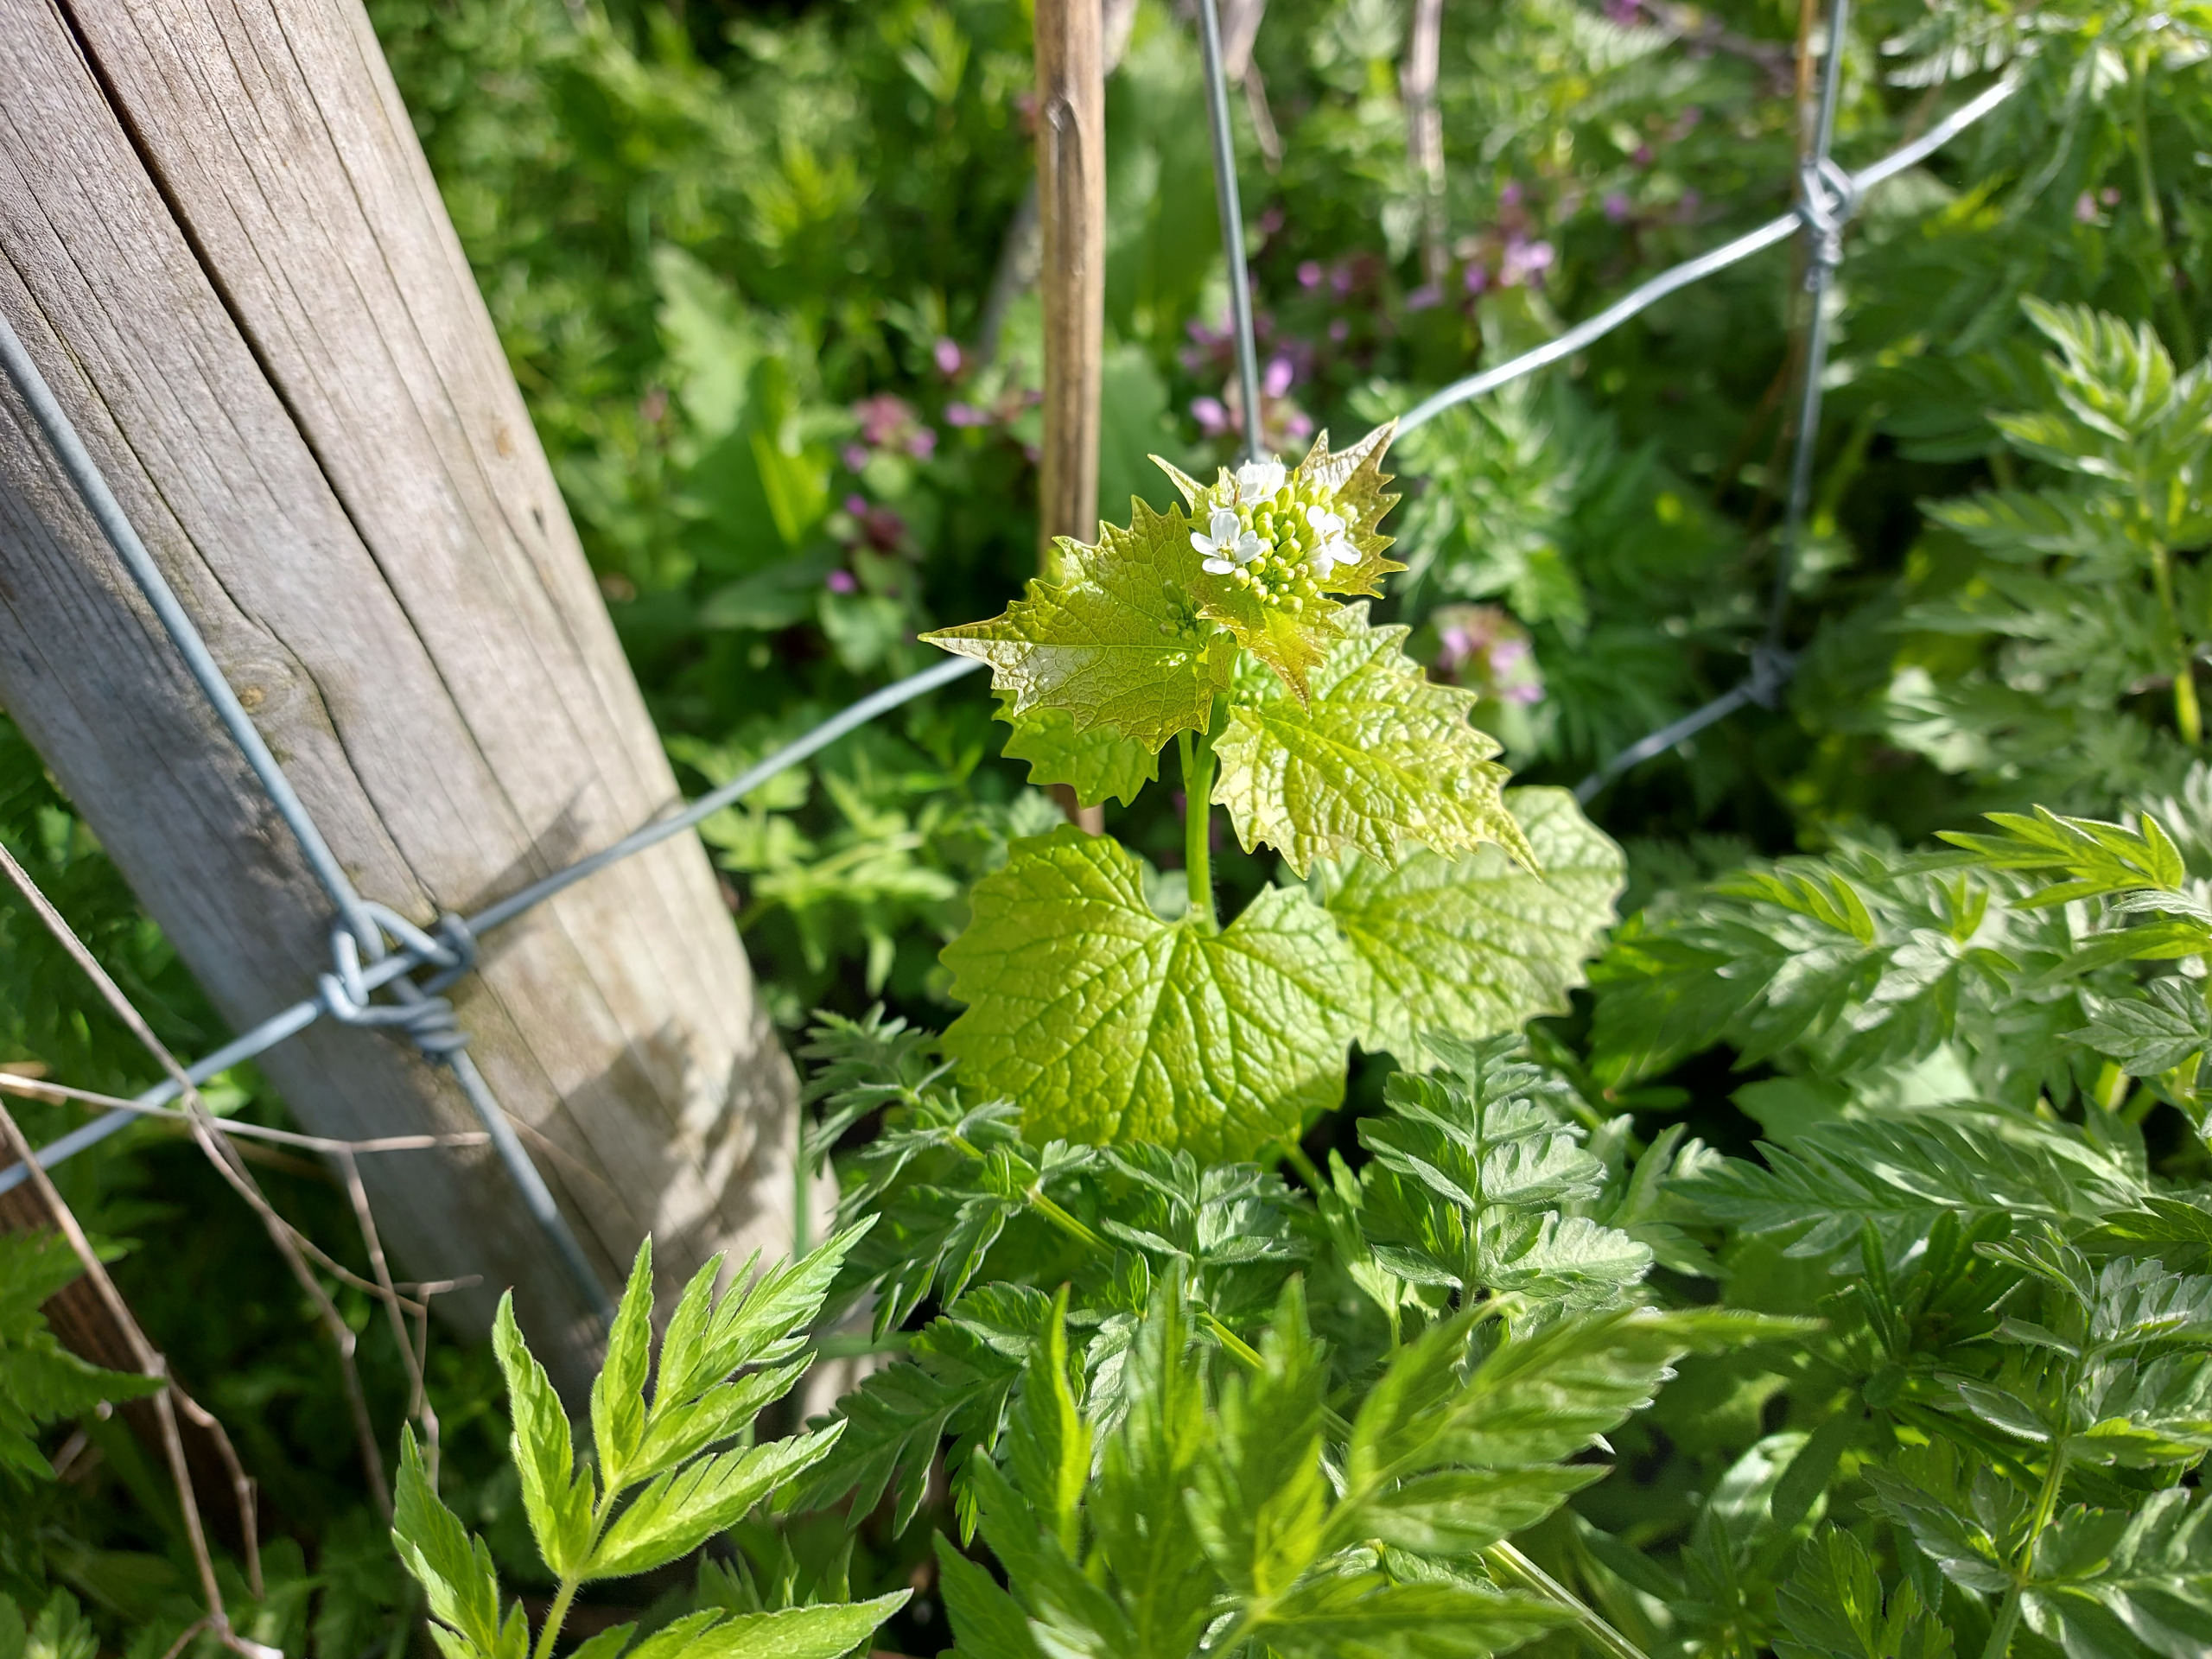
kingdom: Plantae
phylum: Tracheophyta
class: Magnoliopsida
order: Brassicales
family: Brassicaceae
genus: Alliaria
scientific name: Alliaria petiolata
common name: Løgkarse
